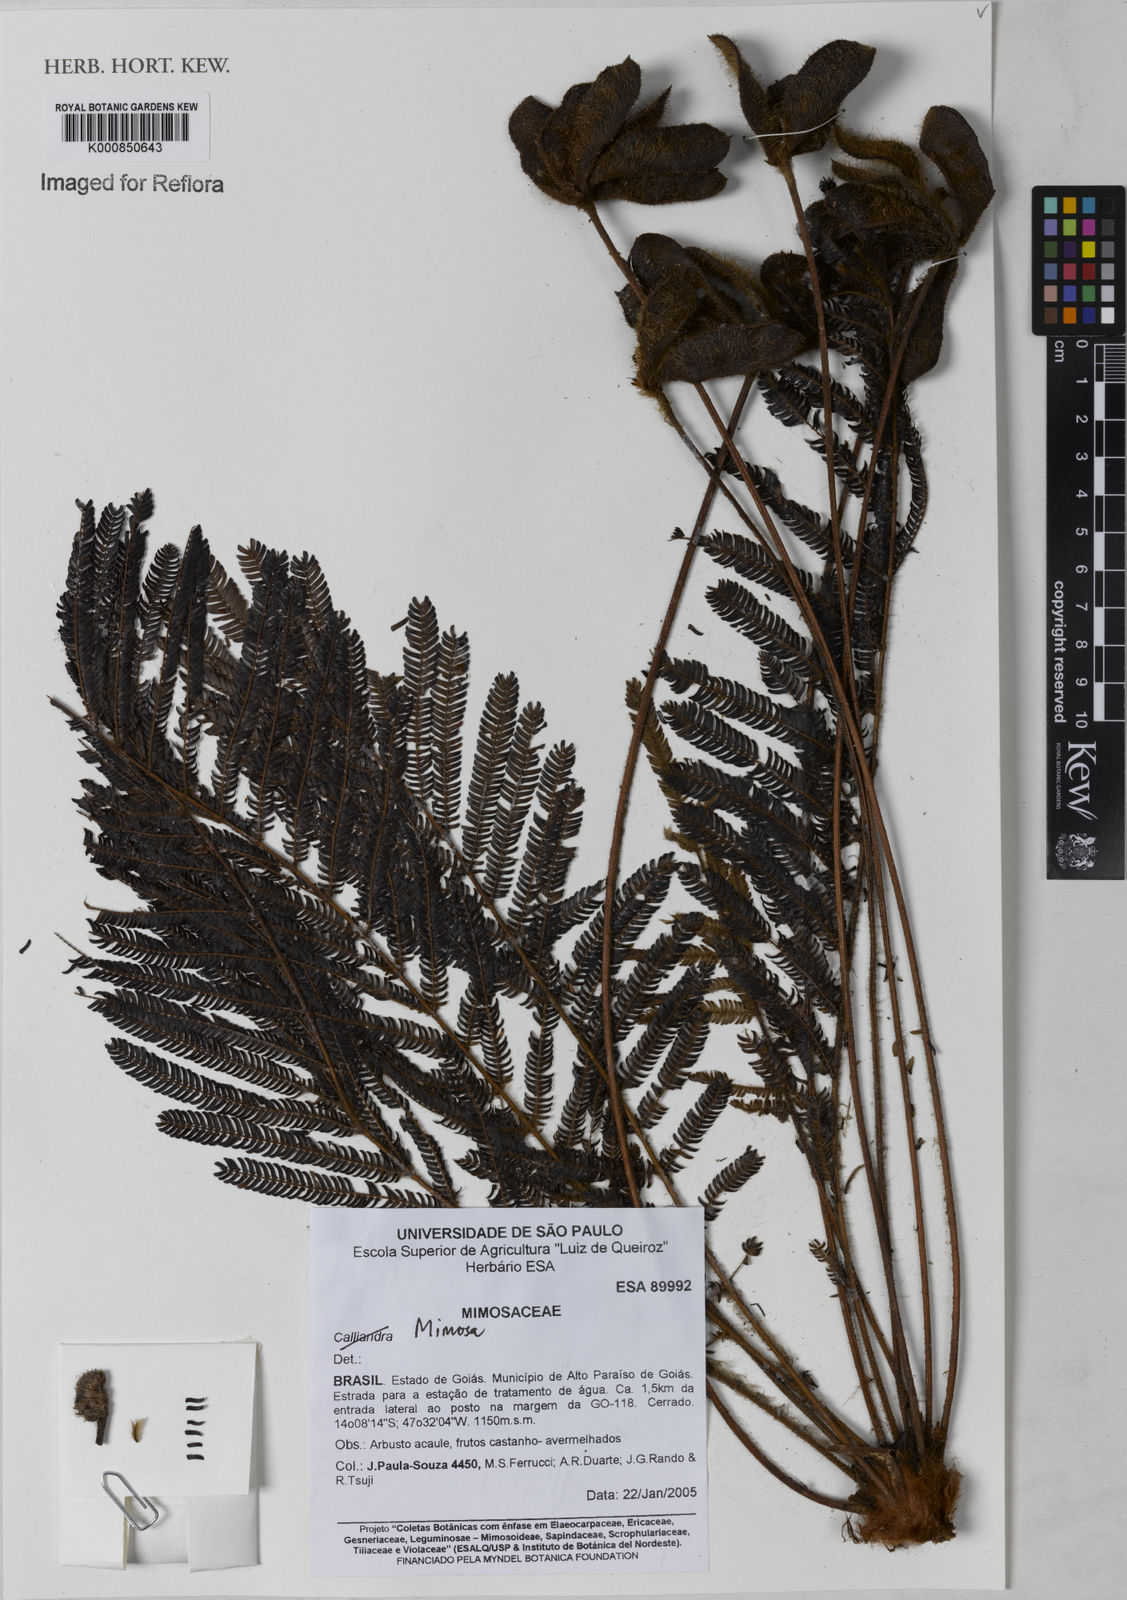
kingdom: Plantae
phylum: Tracheophyta
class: Magnoliopsida
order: Fabales
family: Fabaceae
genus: Mimosa
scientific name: Mimosa speciosissima
